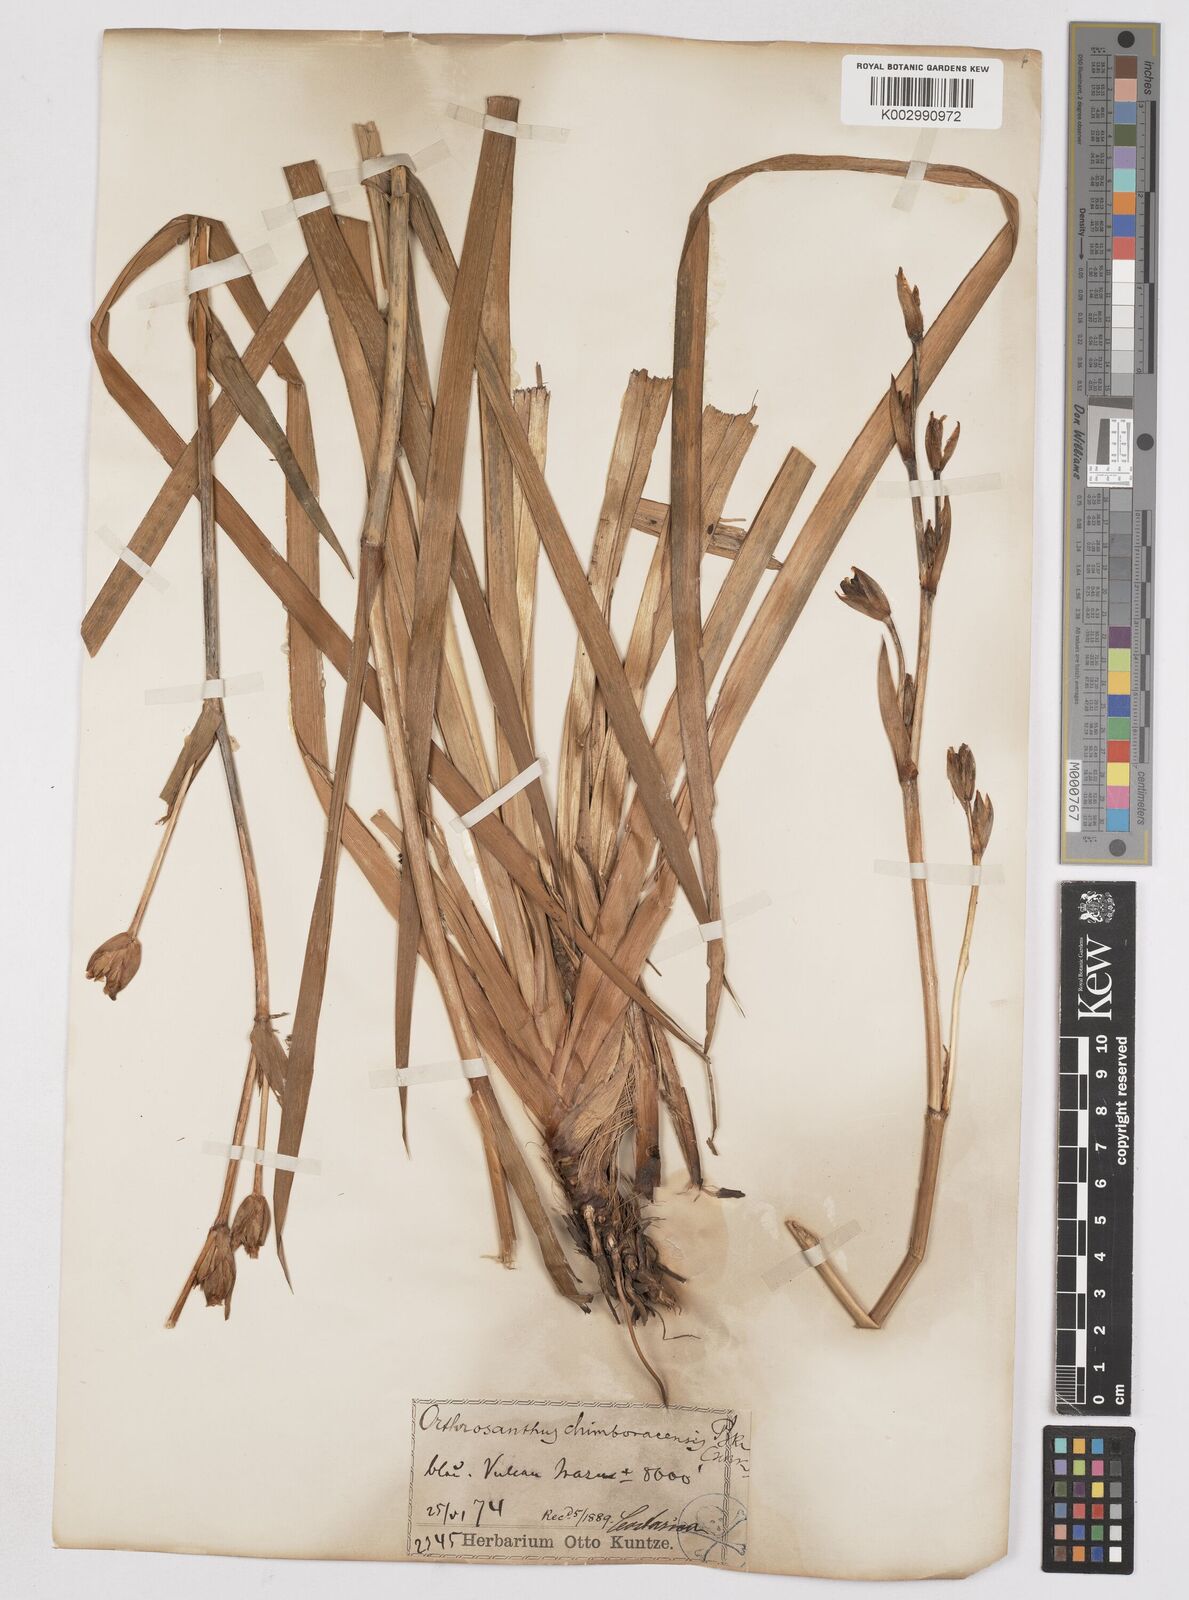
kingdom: Plantae
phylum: Tracheophyta
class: Liliopsida
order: Asparagales
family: Iridaceae
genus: Orthrosanthus
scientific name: Orthrosanthus chimboracensis
